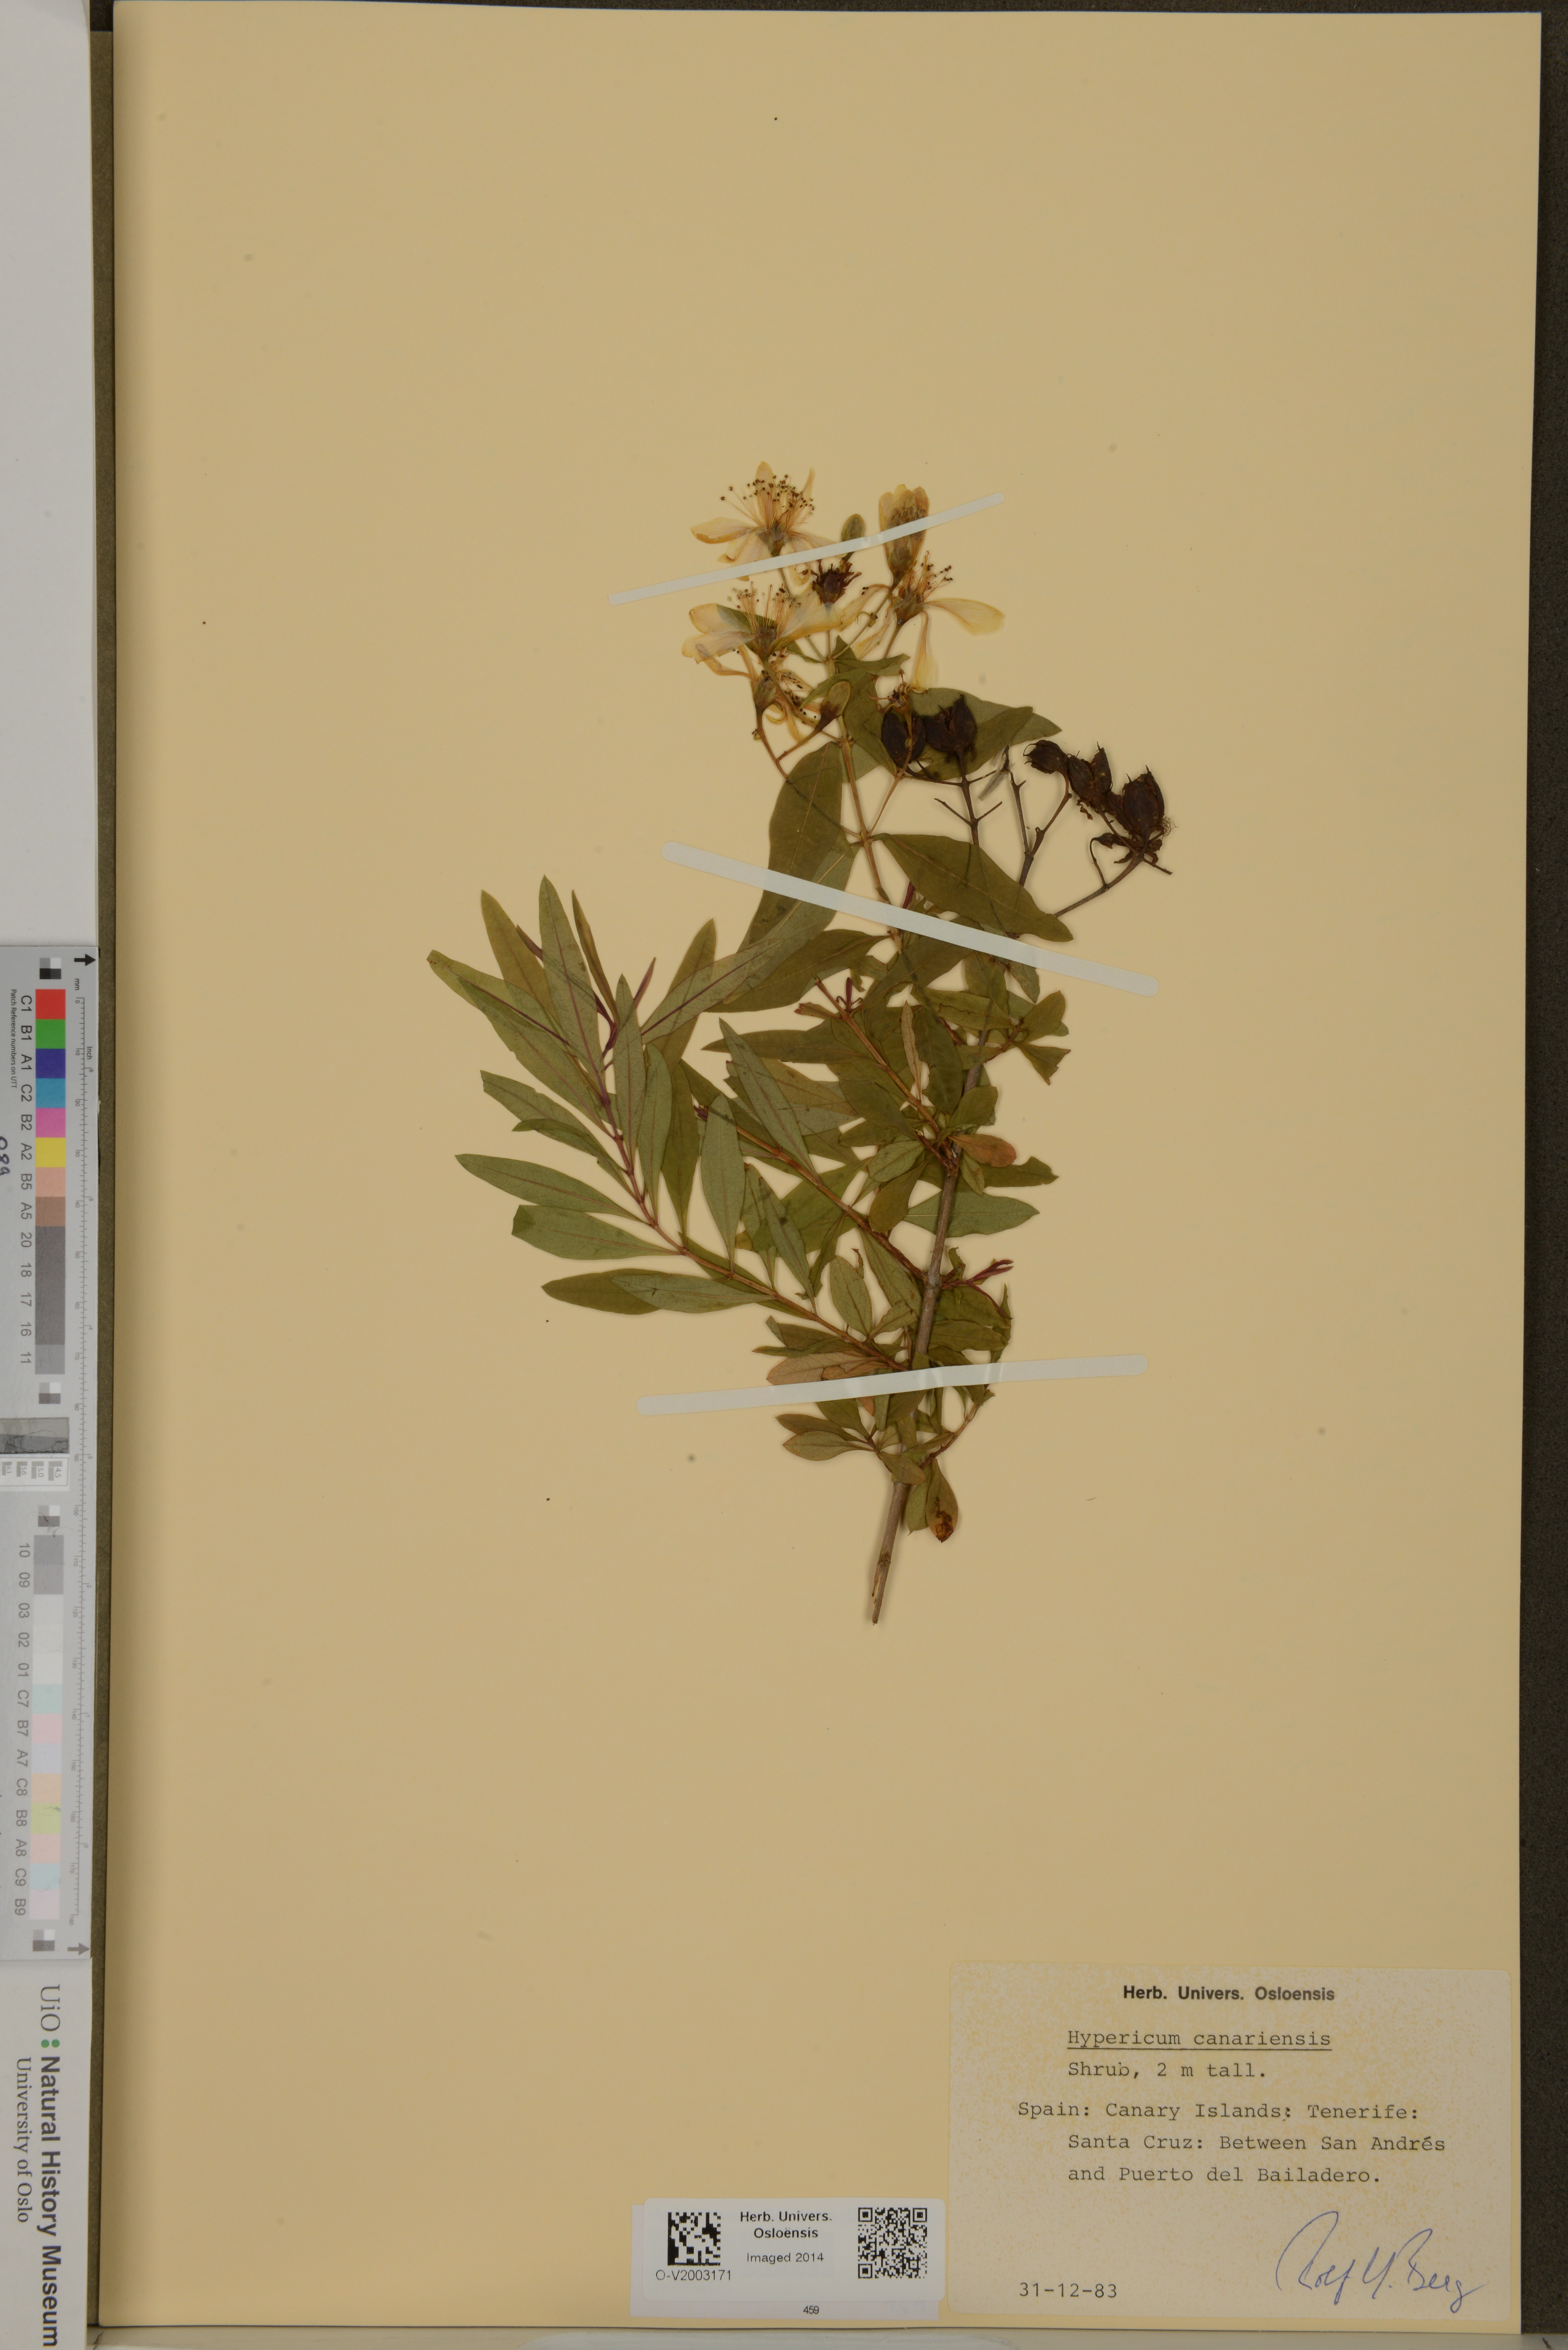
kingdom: Plantae
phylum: Tracheophyta
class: Magnoliopsida
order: Malpighiales
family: Hypericaceae
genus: Hypericum
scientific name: Hypericum canariense
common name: Canary island st. johnswort
